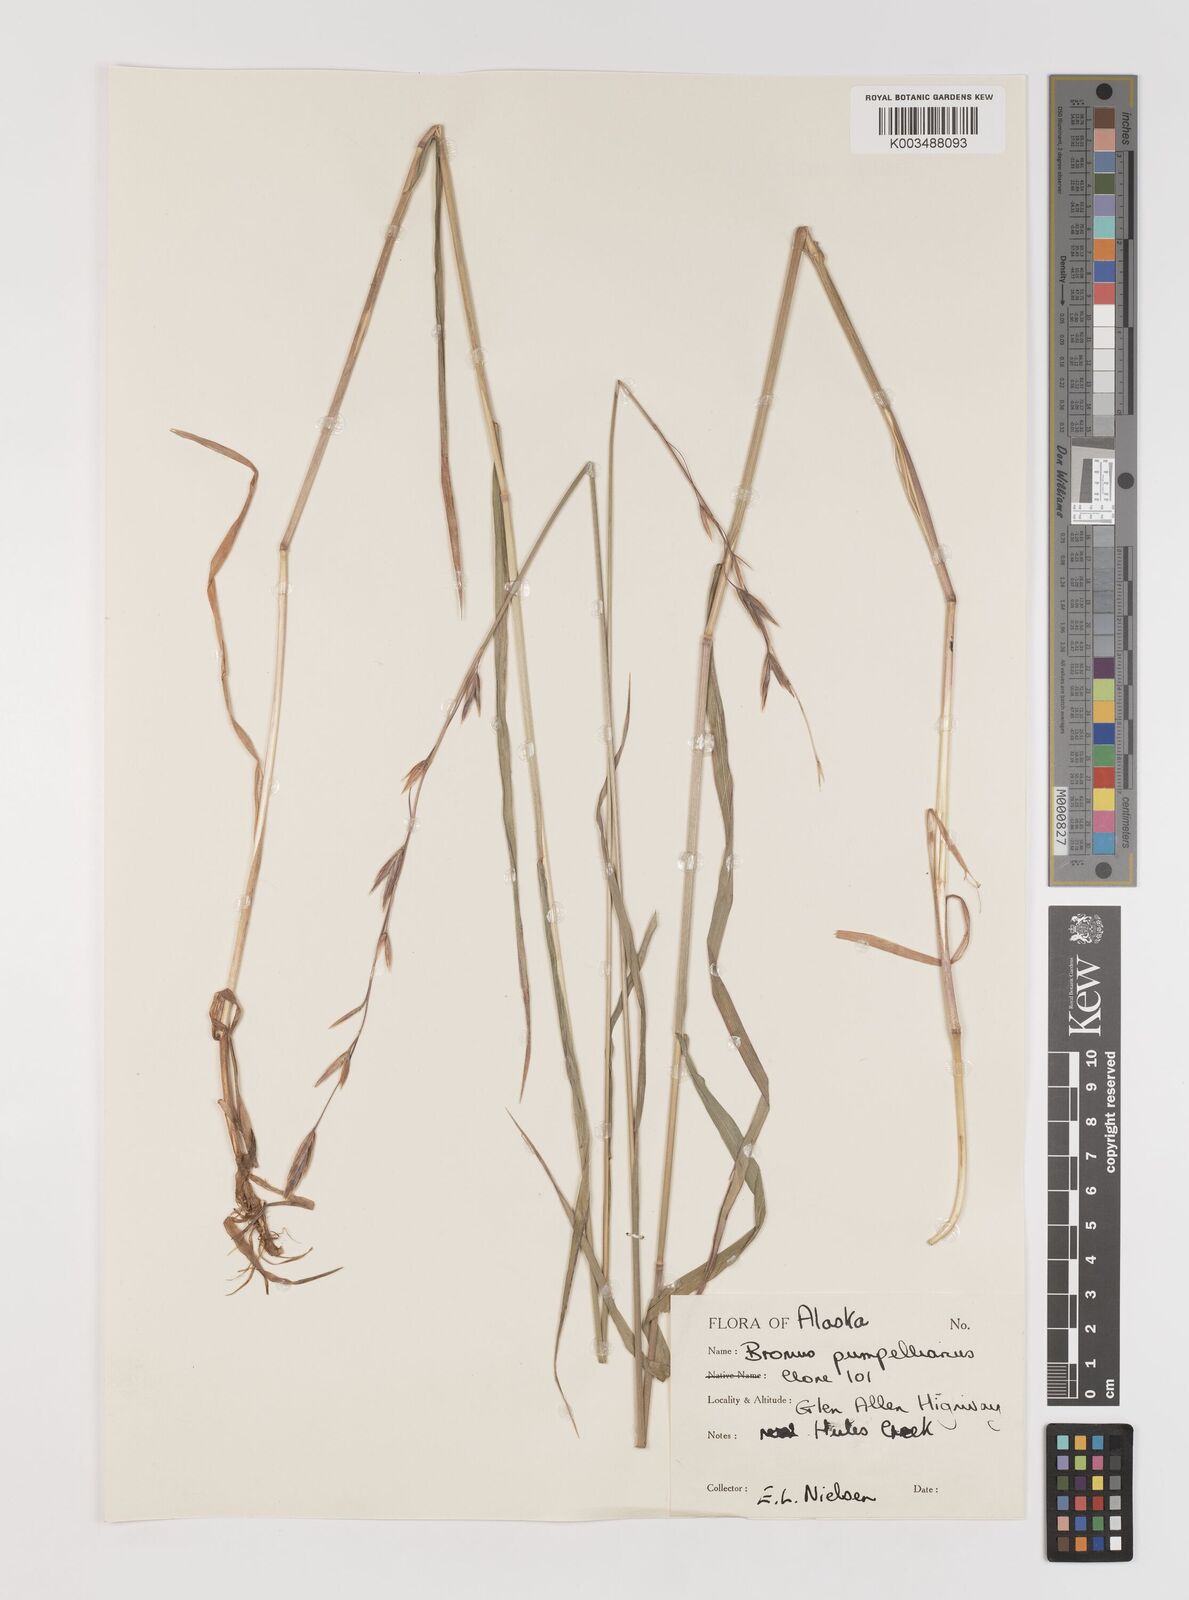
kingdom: Plantae
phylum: Tracheophyta
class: Liliopsida
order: Poales
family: Poaceae
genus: Bromus
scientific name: Bromus pumpellianus
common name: Pumpelly's brome
